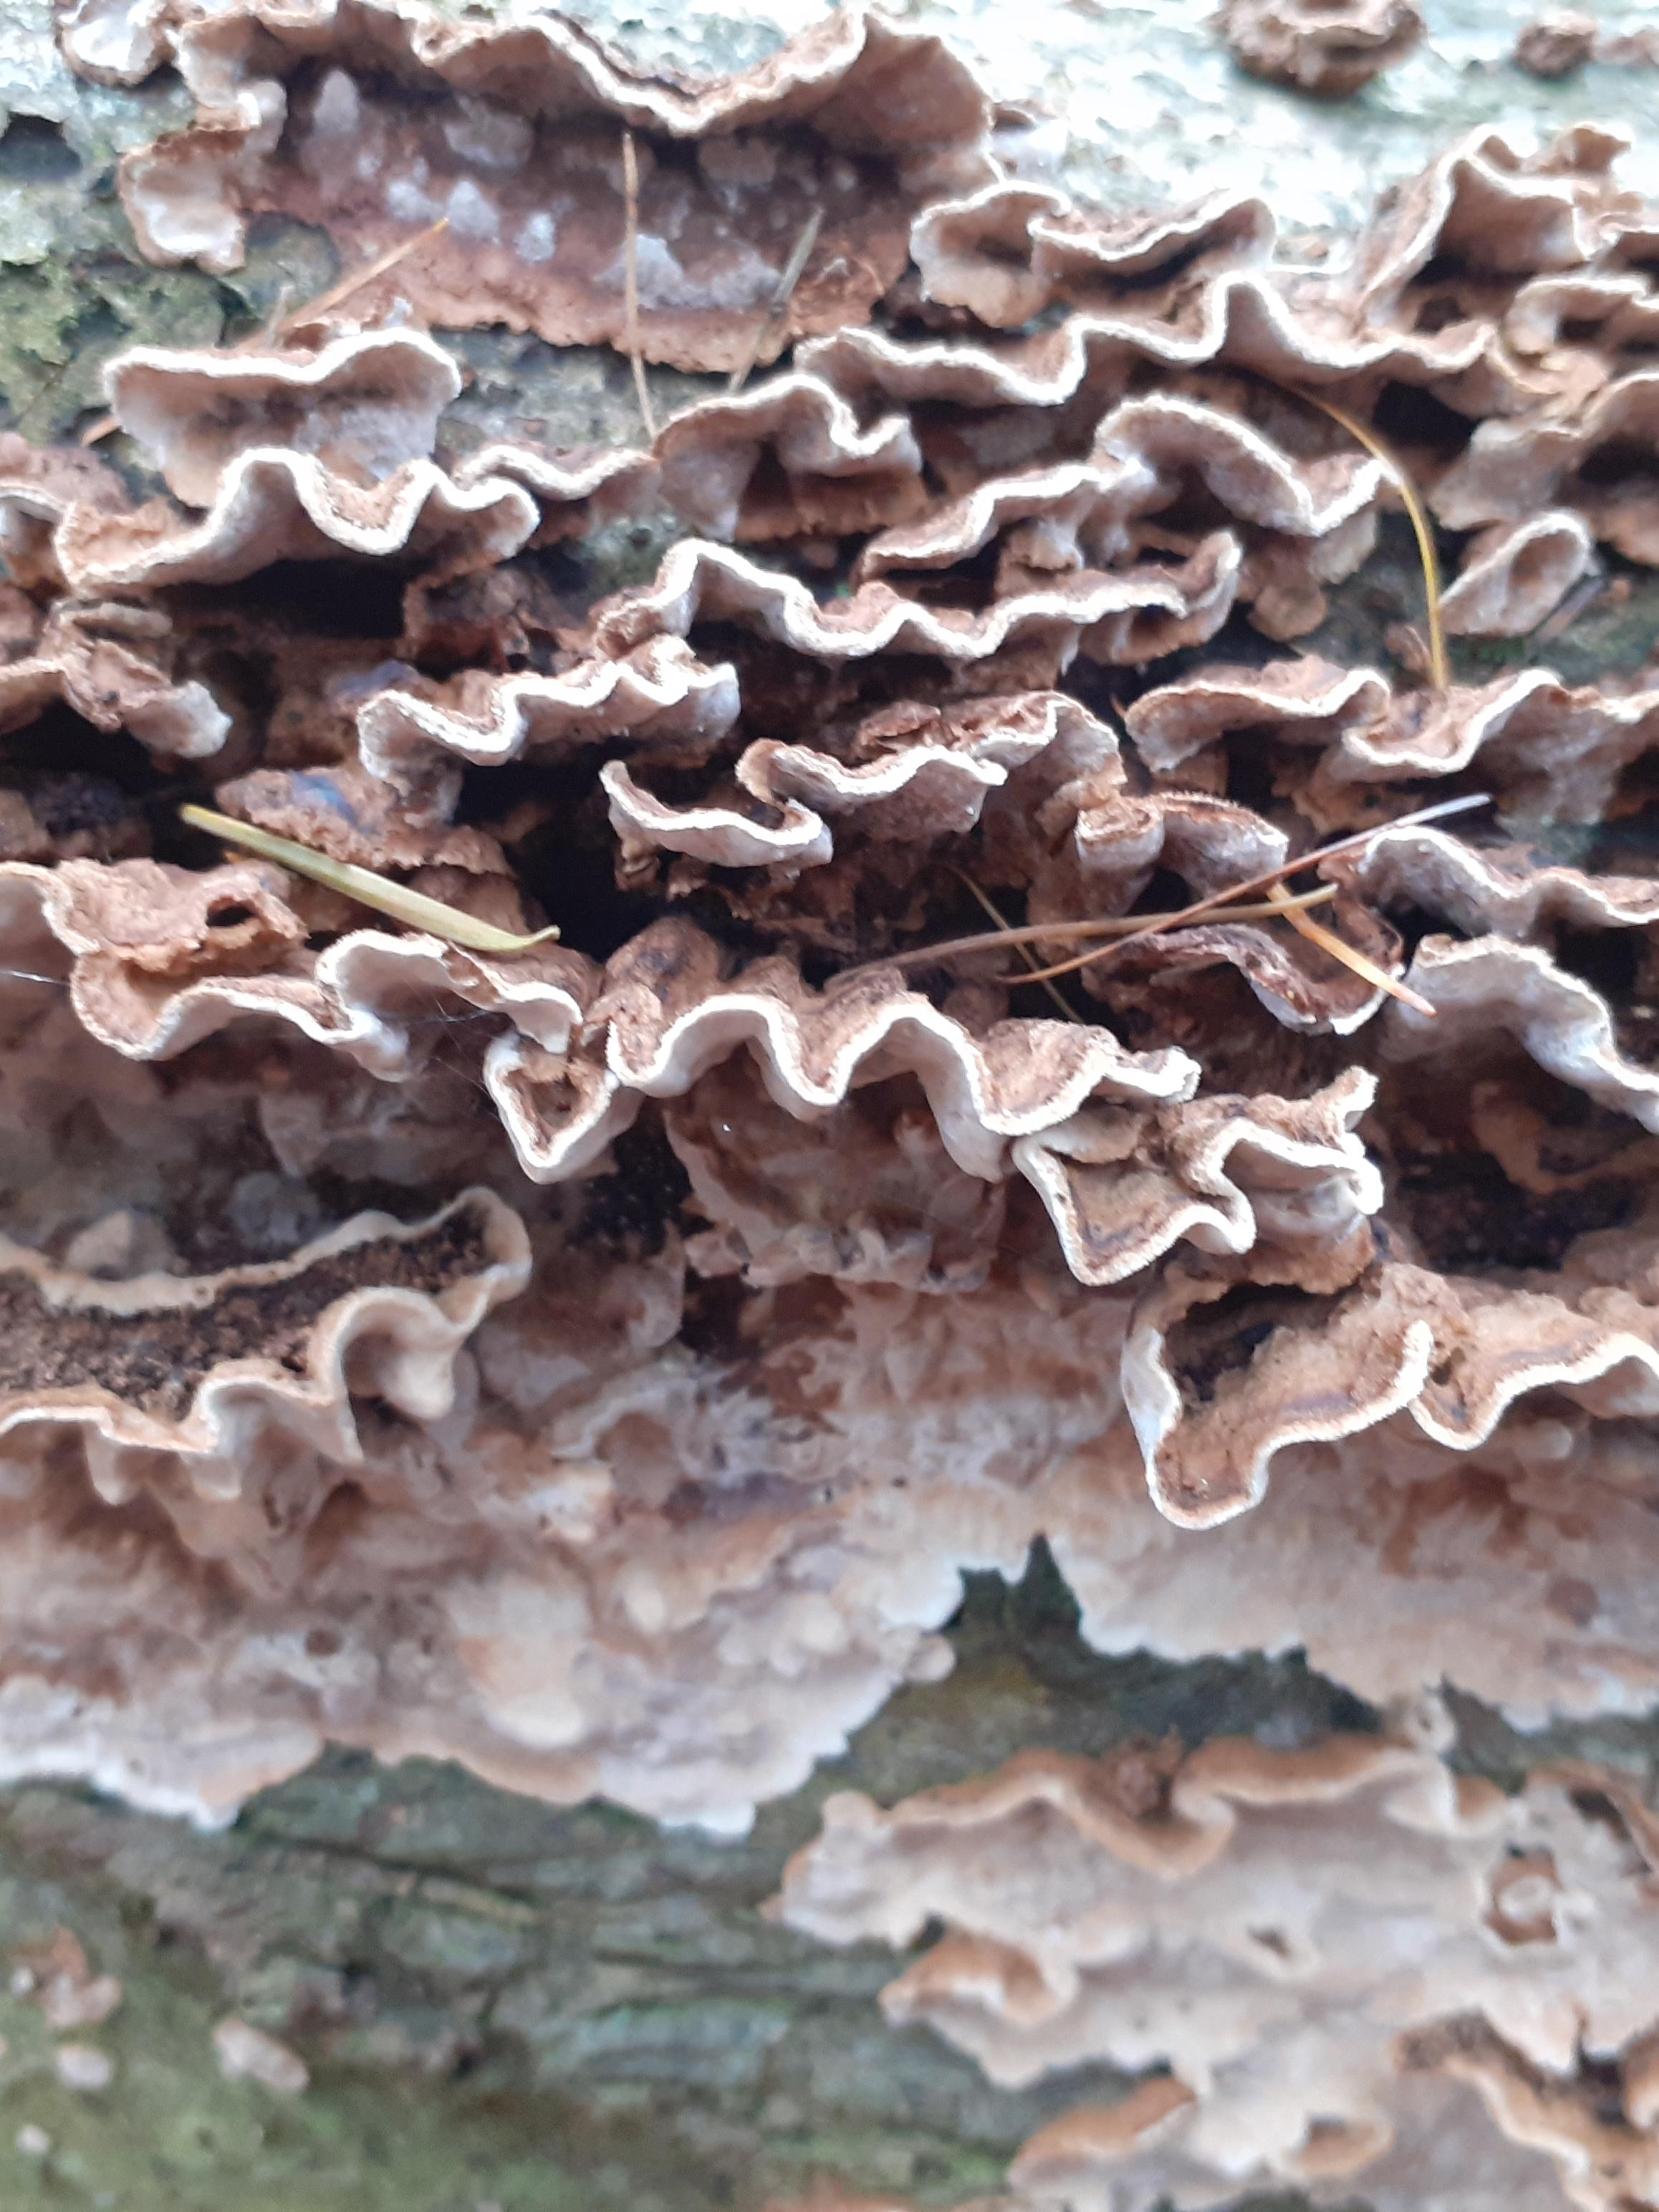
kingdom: Fungi
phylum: Basidiomycota
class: Agaricomycetes
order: Russulales
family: Hericiaceae
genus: Laxitextum
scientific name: Laxitextum bicolor
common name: tvefarvet filtskind
